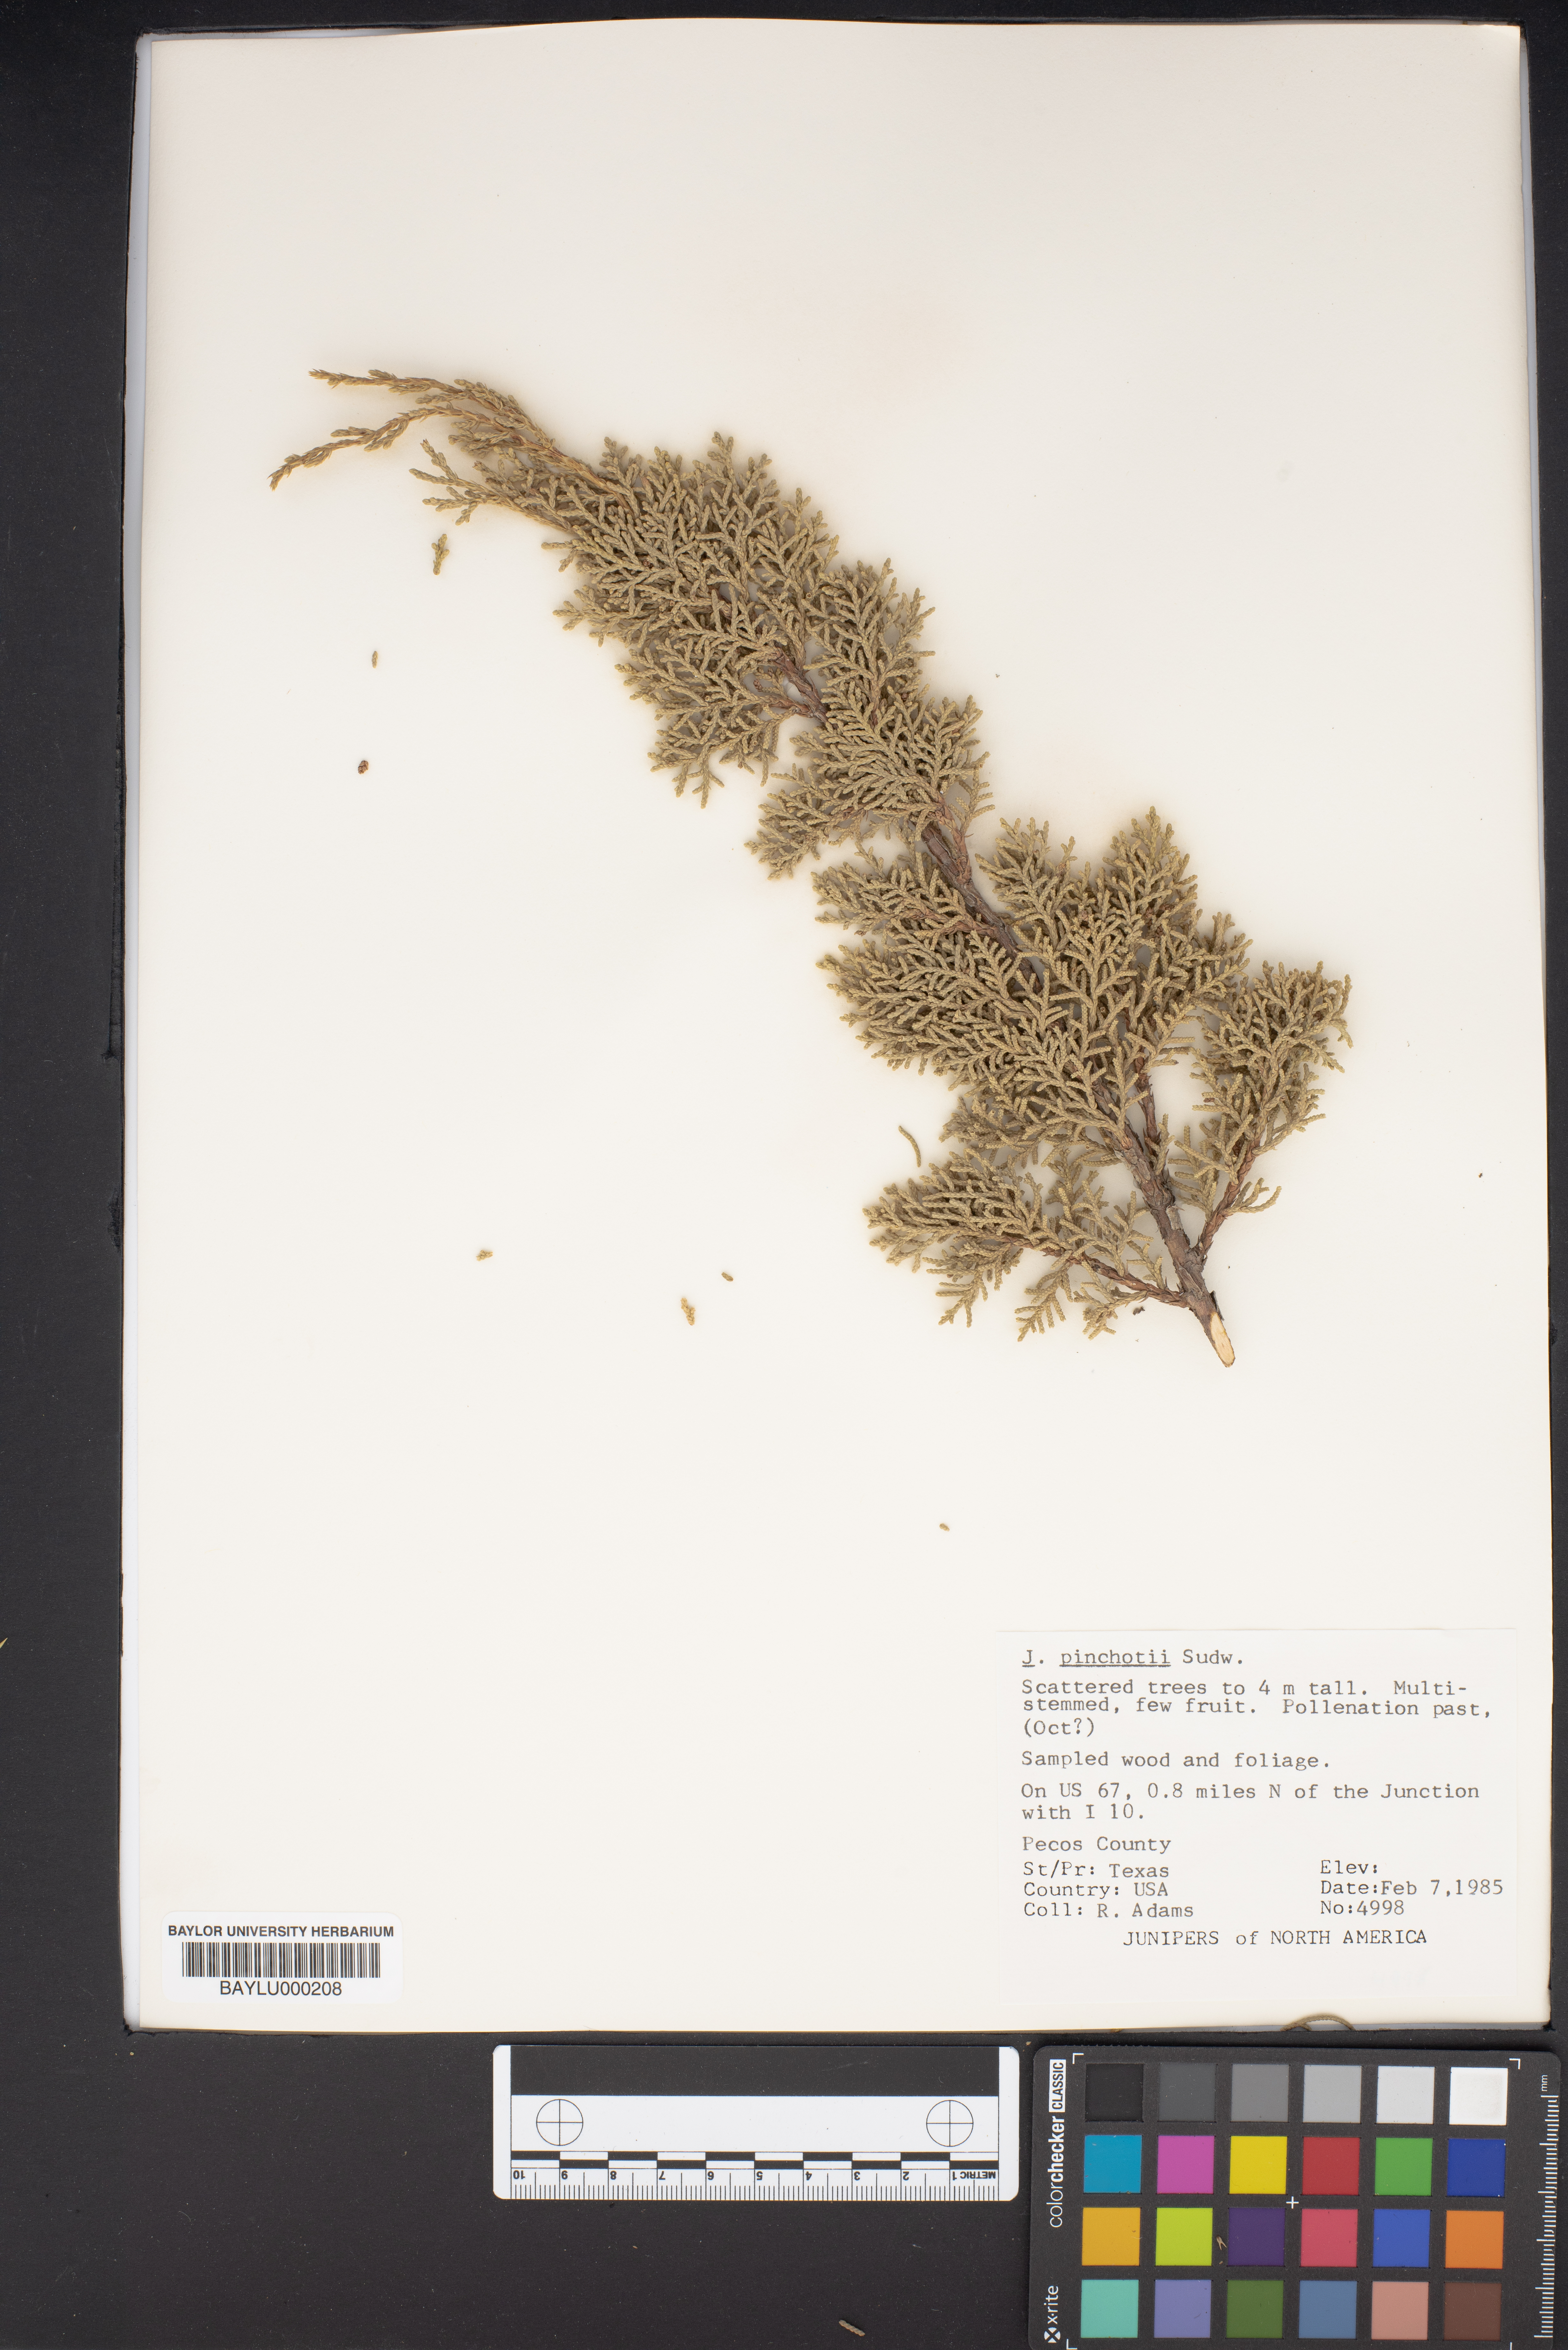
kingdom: Plantae
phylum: Tracheophyta
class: Pinopsida
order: Pinales
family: Cupressaceae
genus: Juniperus
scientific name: Juniperus pinchotii
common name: Pinchot juniper
